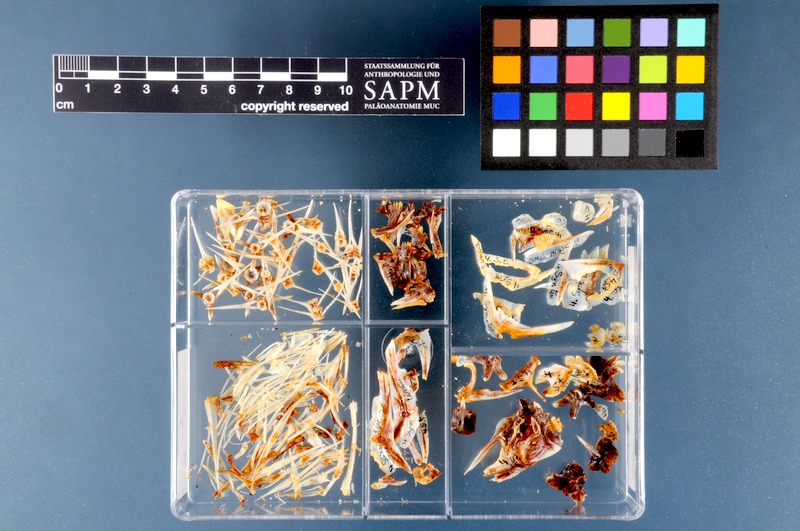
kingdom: Animalia
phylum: Chordata
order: Perciformes
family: Labridae
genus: Symphodus
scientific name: Symphodus tinca
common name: Peacock wrasse
